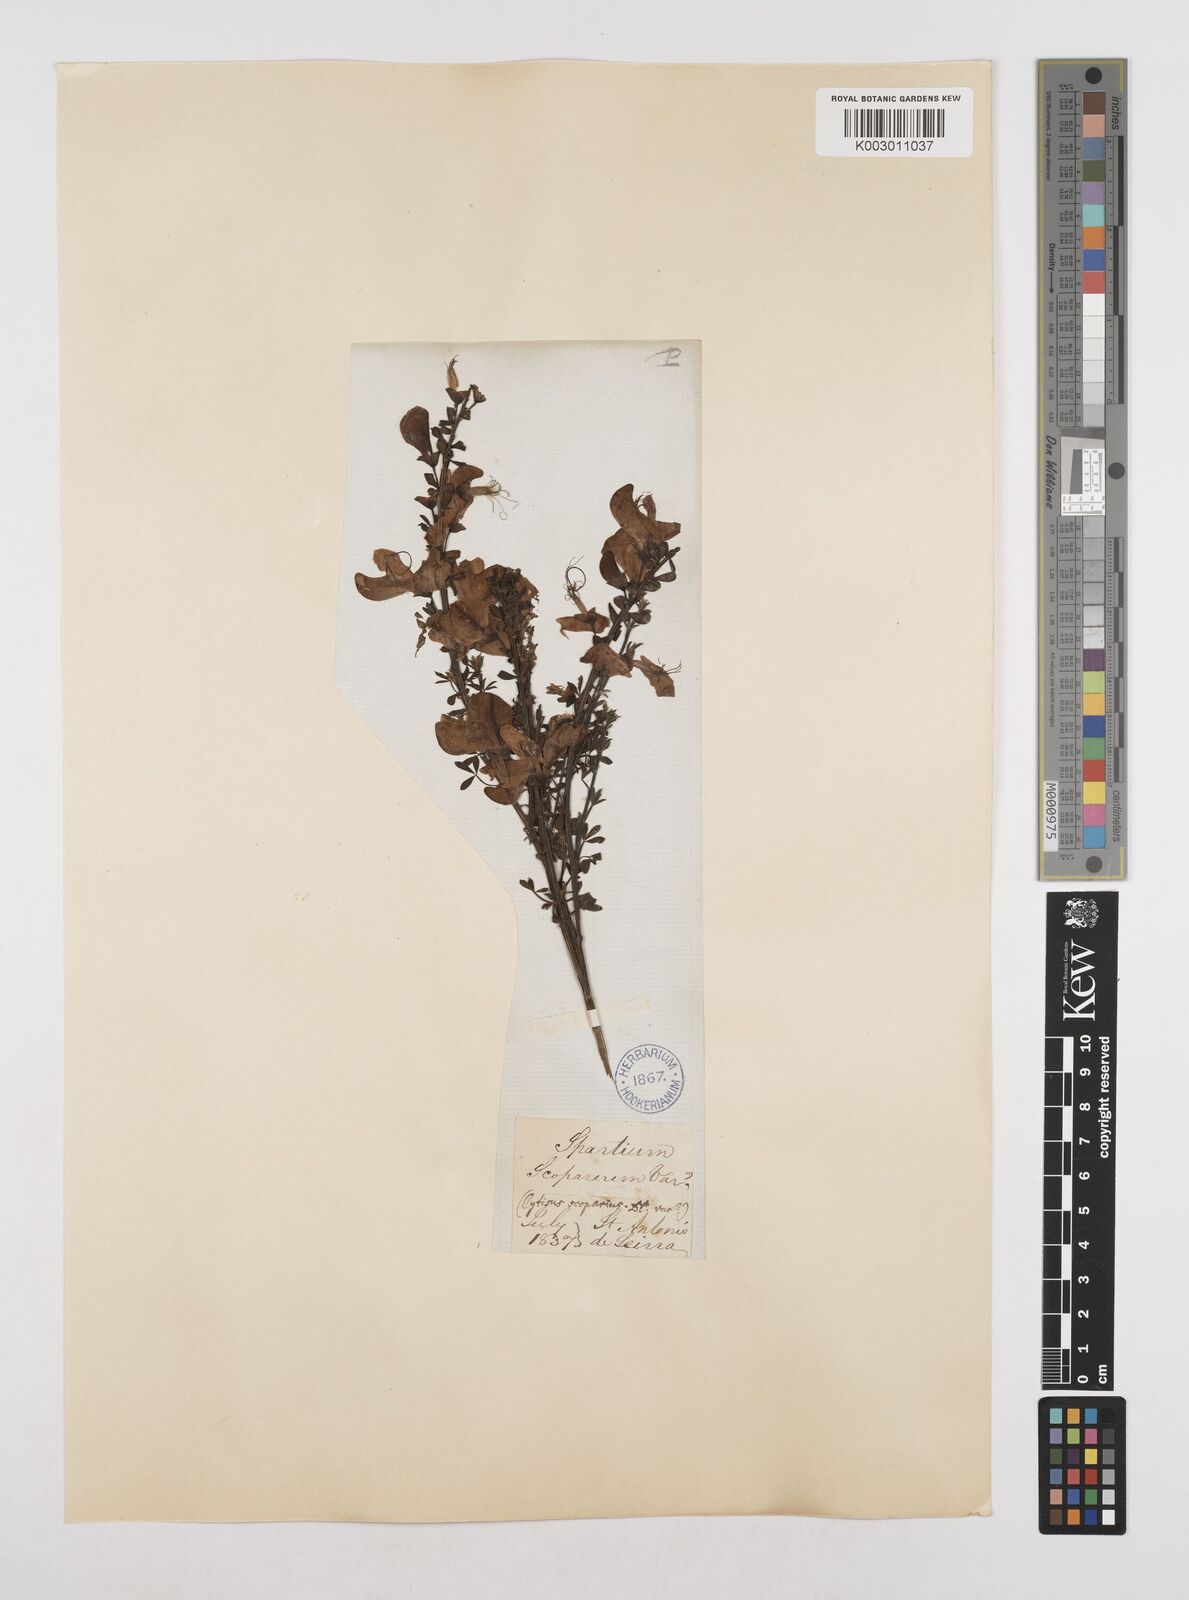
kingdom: Plantae
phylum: Tracheophyta
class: Magnoliopsida
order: Fabales
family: Fabaceae
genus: Cytisus
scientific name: Cytisus scoparius
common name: Scotch broom
